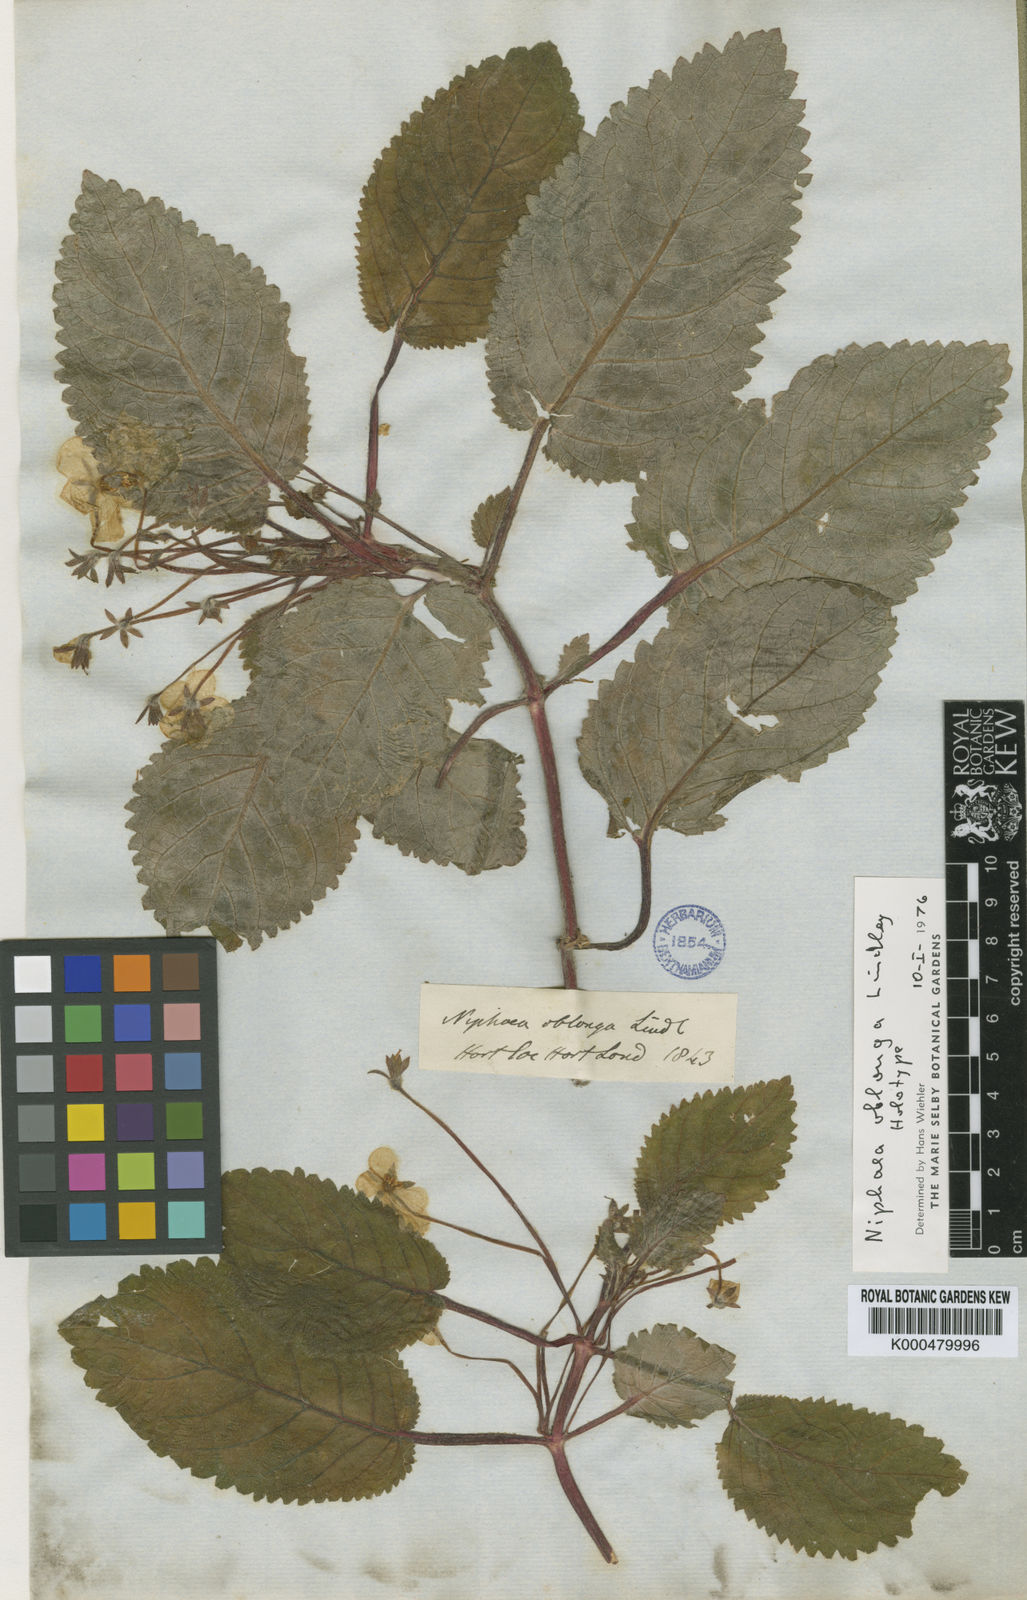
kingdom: Plantae
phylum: Tracheophyta
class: Magnoliopsida
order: Lamiales
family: Gesneriaceae
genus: Niphaea
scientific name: Niphaea oblonga
